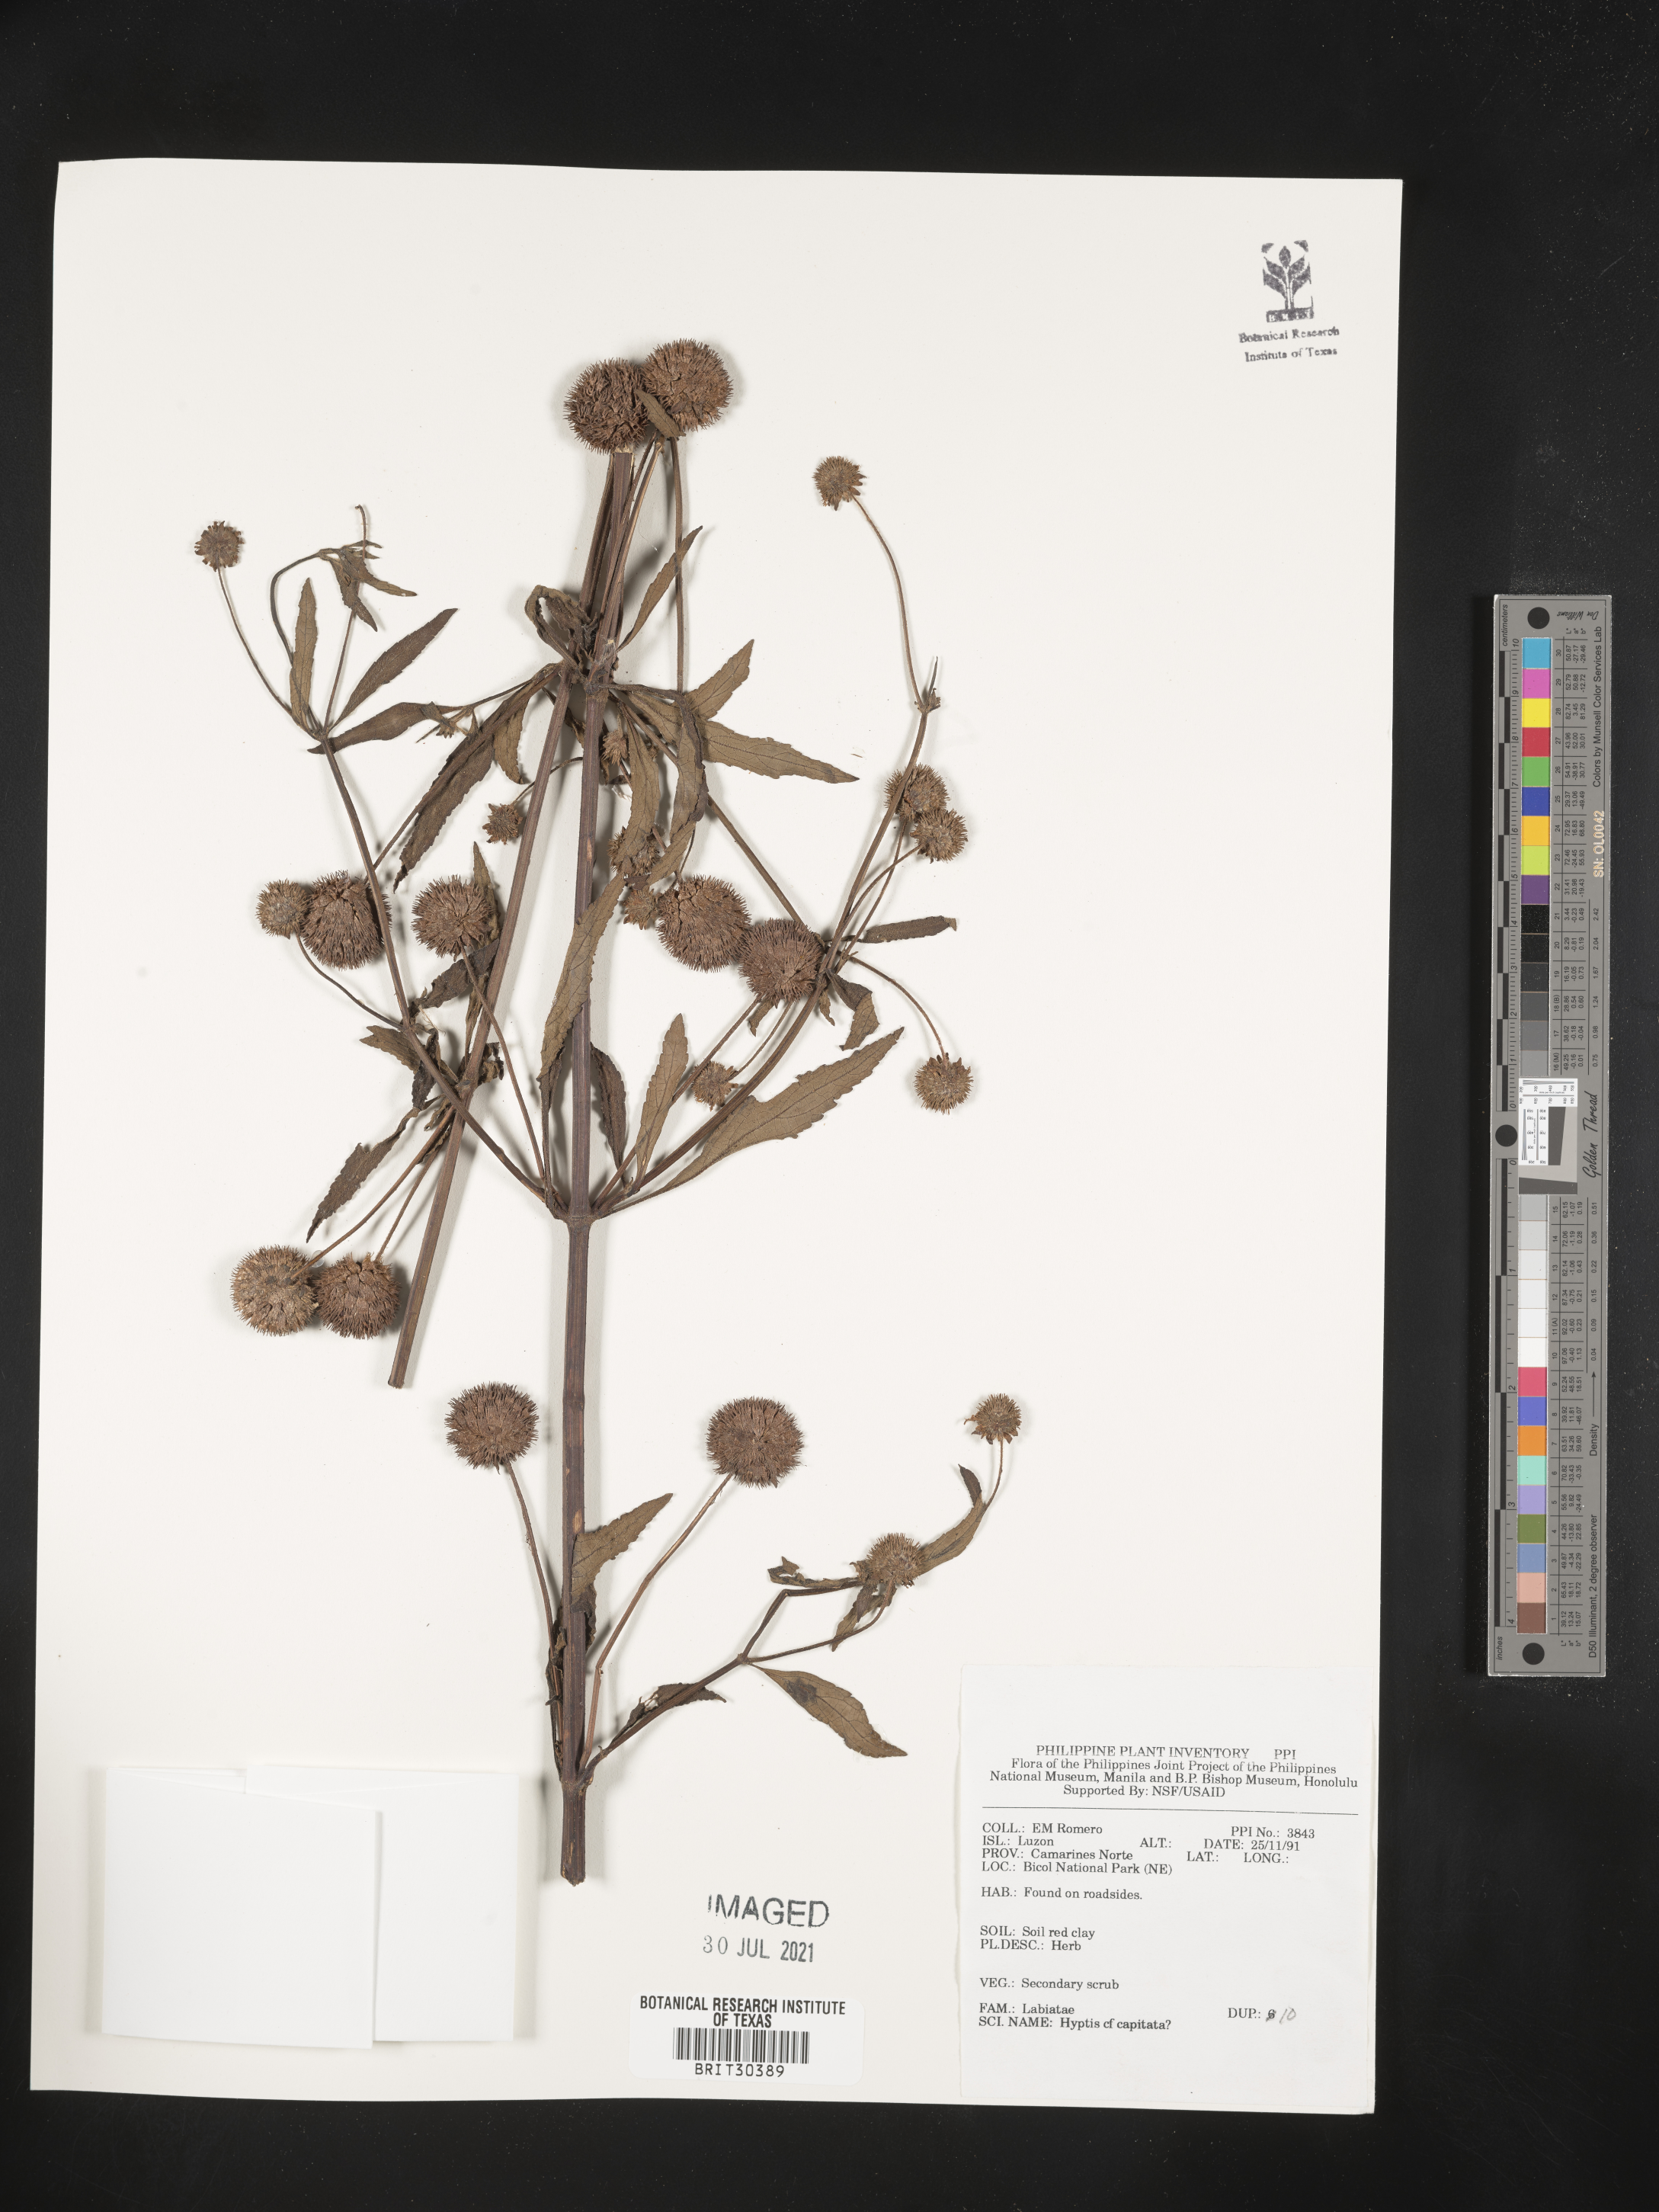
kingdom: Plantae
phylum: Tracheophyta
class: Magnoliopsida
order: Lamiales
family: Lamiaceae
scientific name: Lamiaceae
